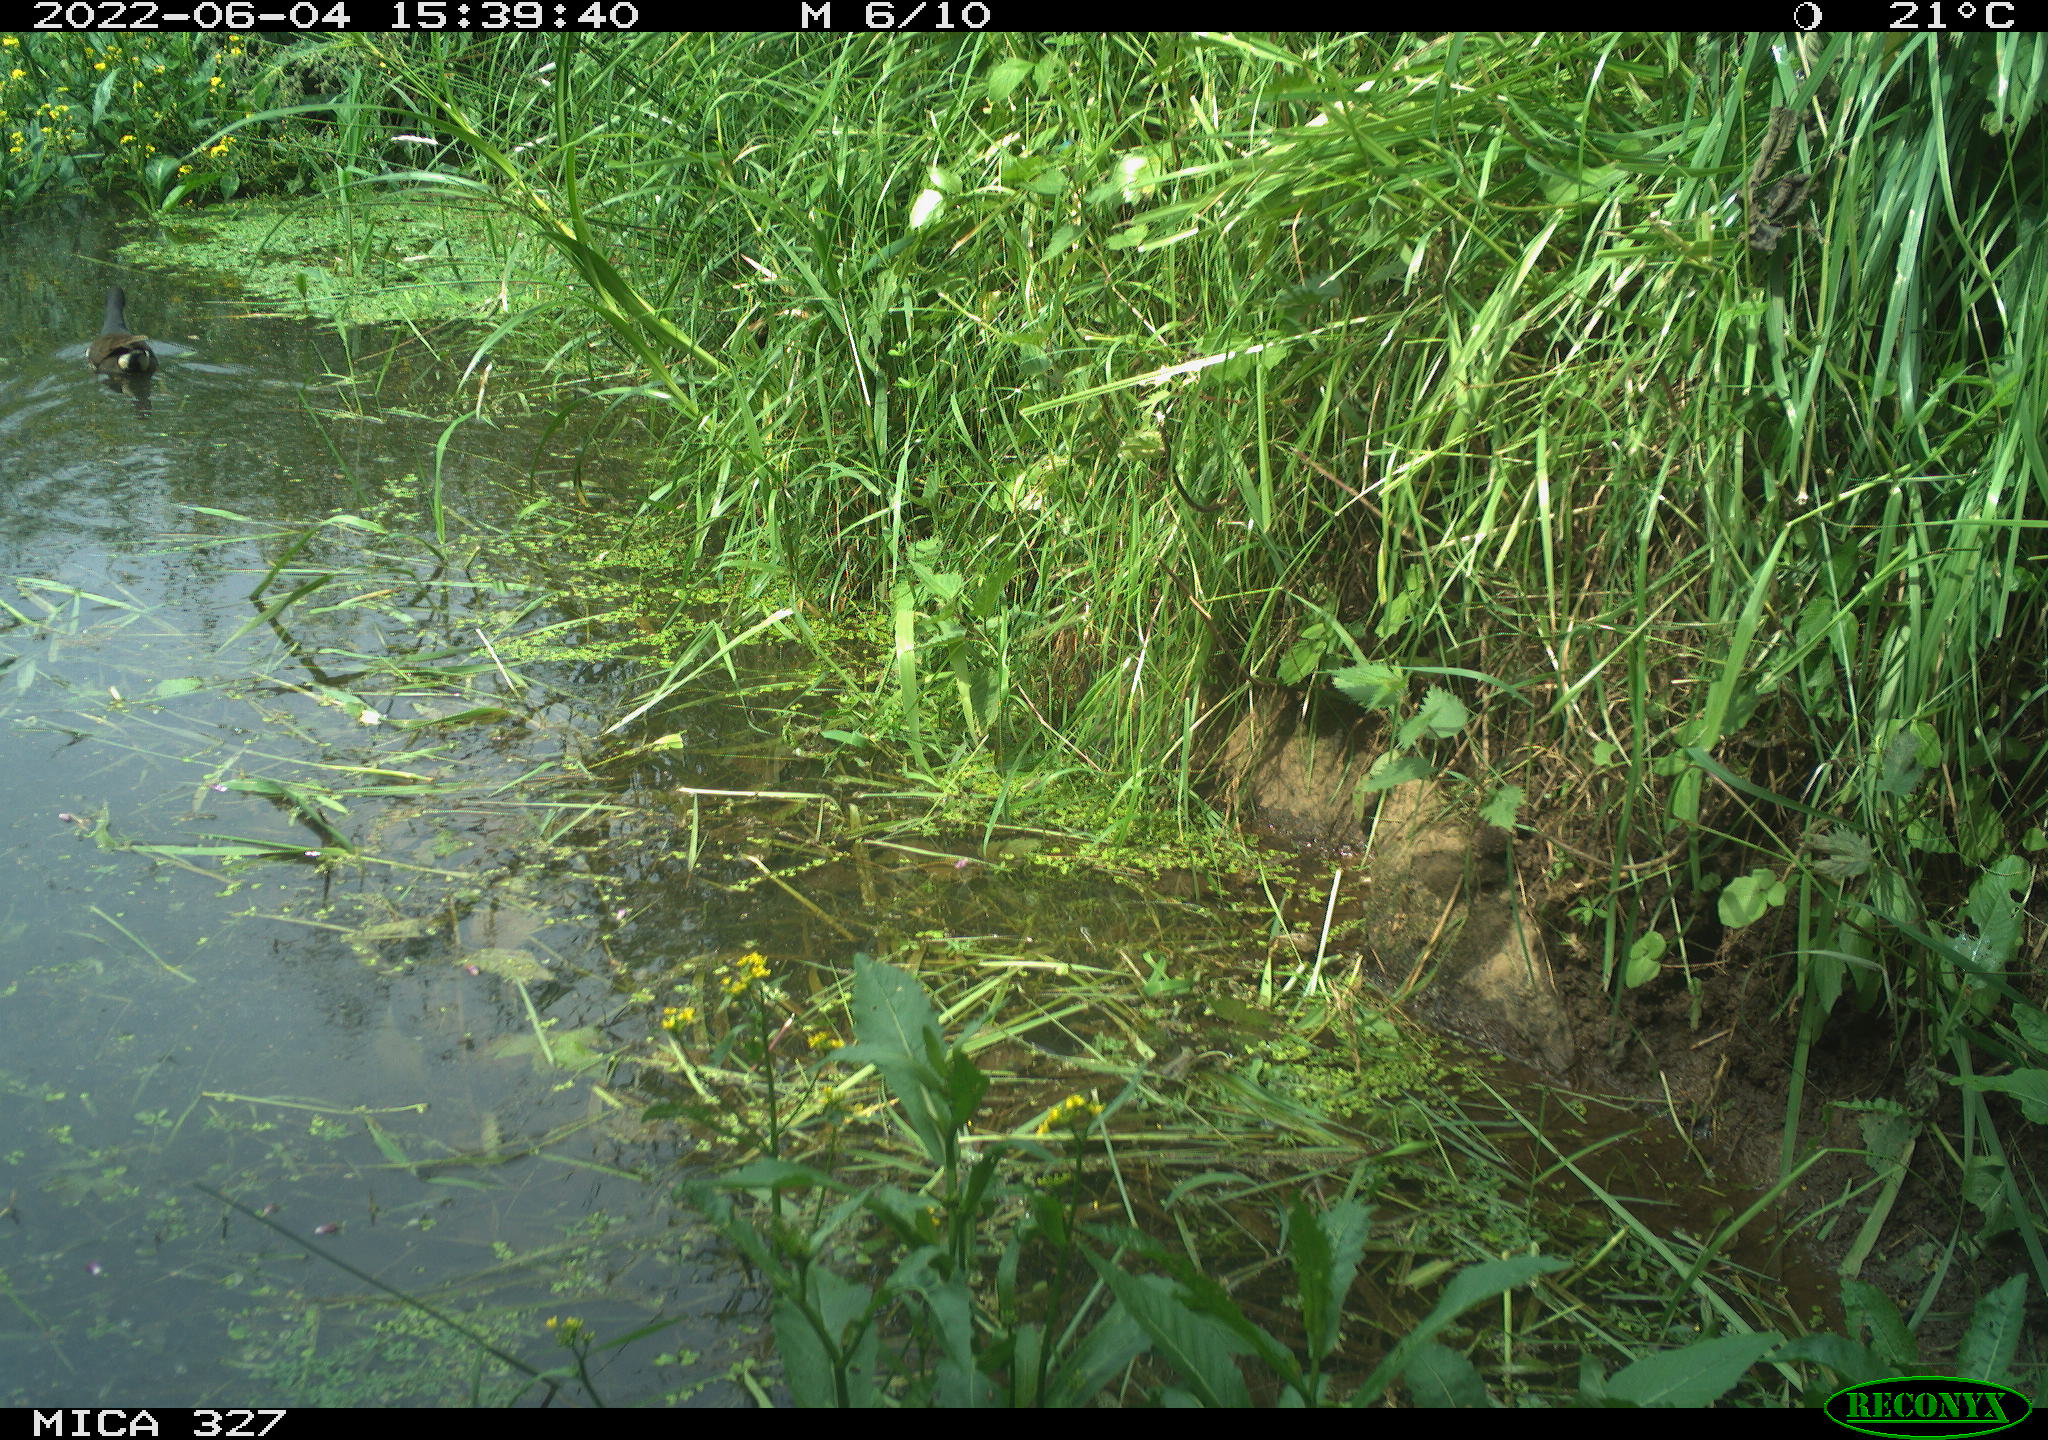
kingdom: Animalia
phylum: Chordata
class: Aves
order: Gruiformes
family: Rallidae
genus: Gallinula
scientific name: Gallinula chloropus
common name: Common moorhen
